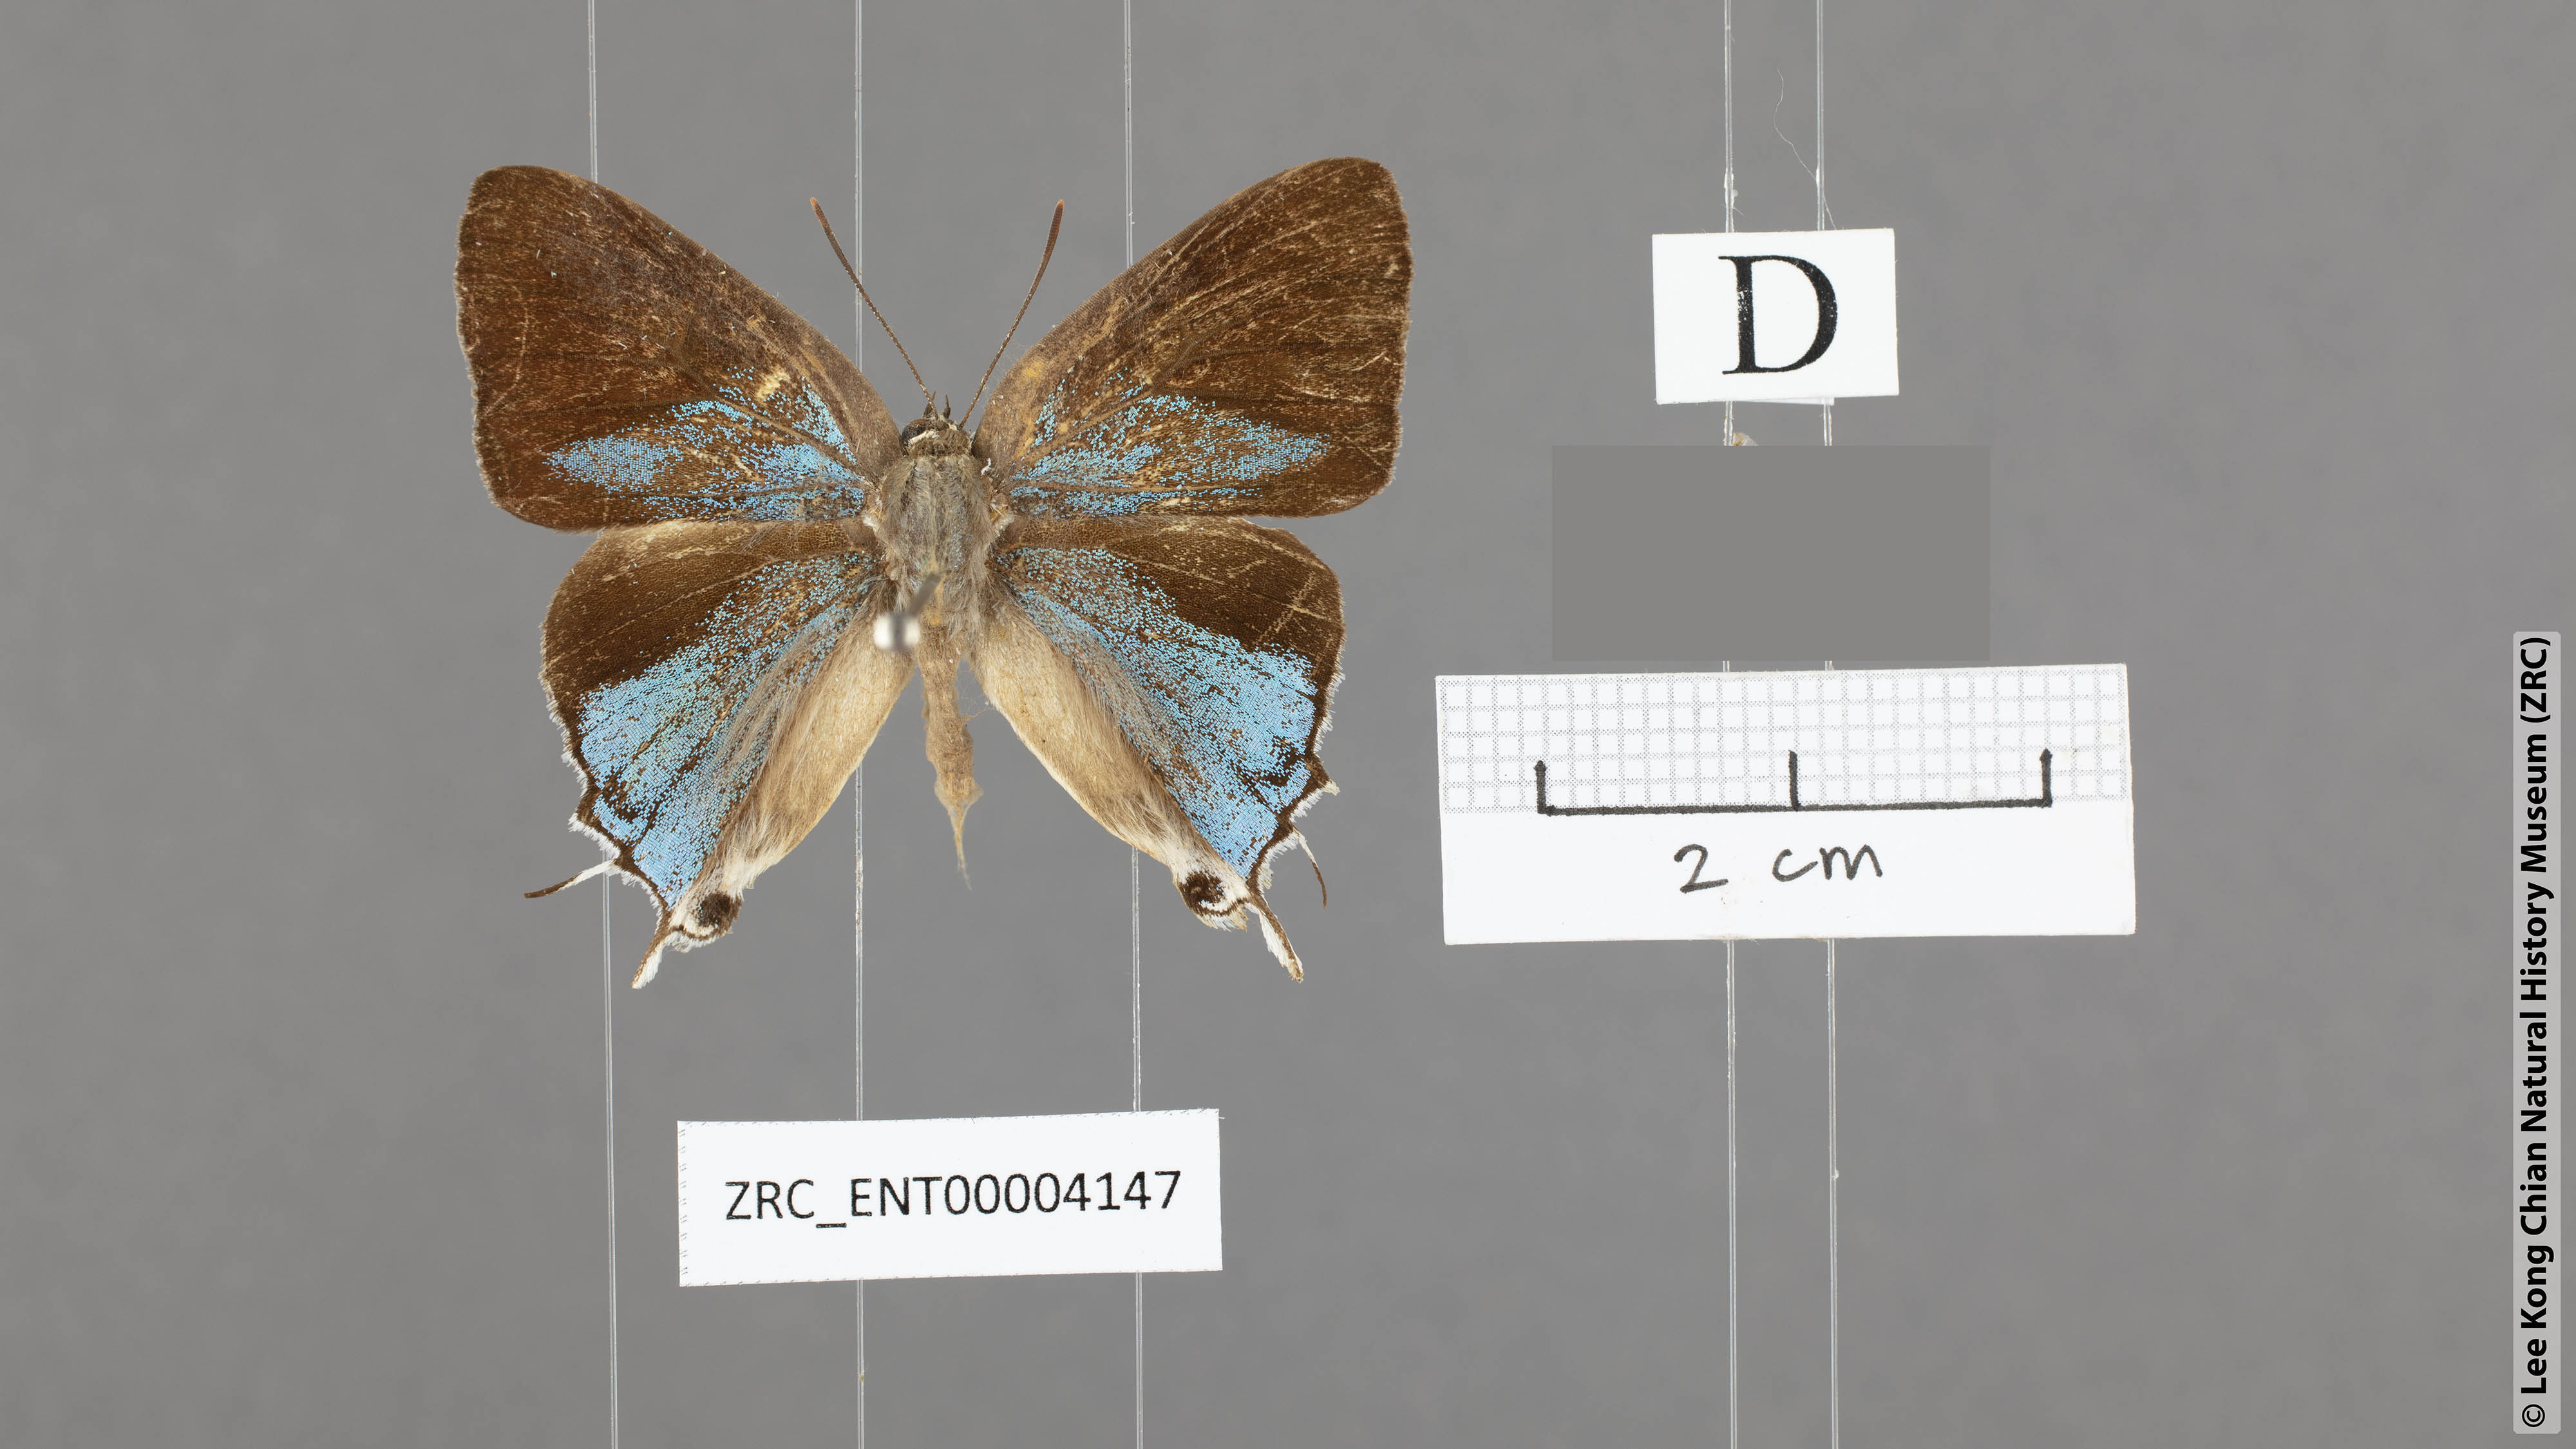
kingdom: Animalia
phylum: Arthropoda
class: Insecta
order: Lepidoptera
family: Lycaenidae
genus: Charana
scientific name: Charana mandarinus
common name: Mandarin blue
